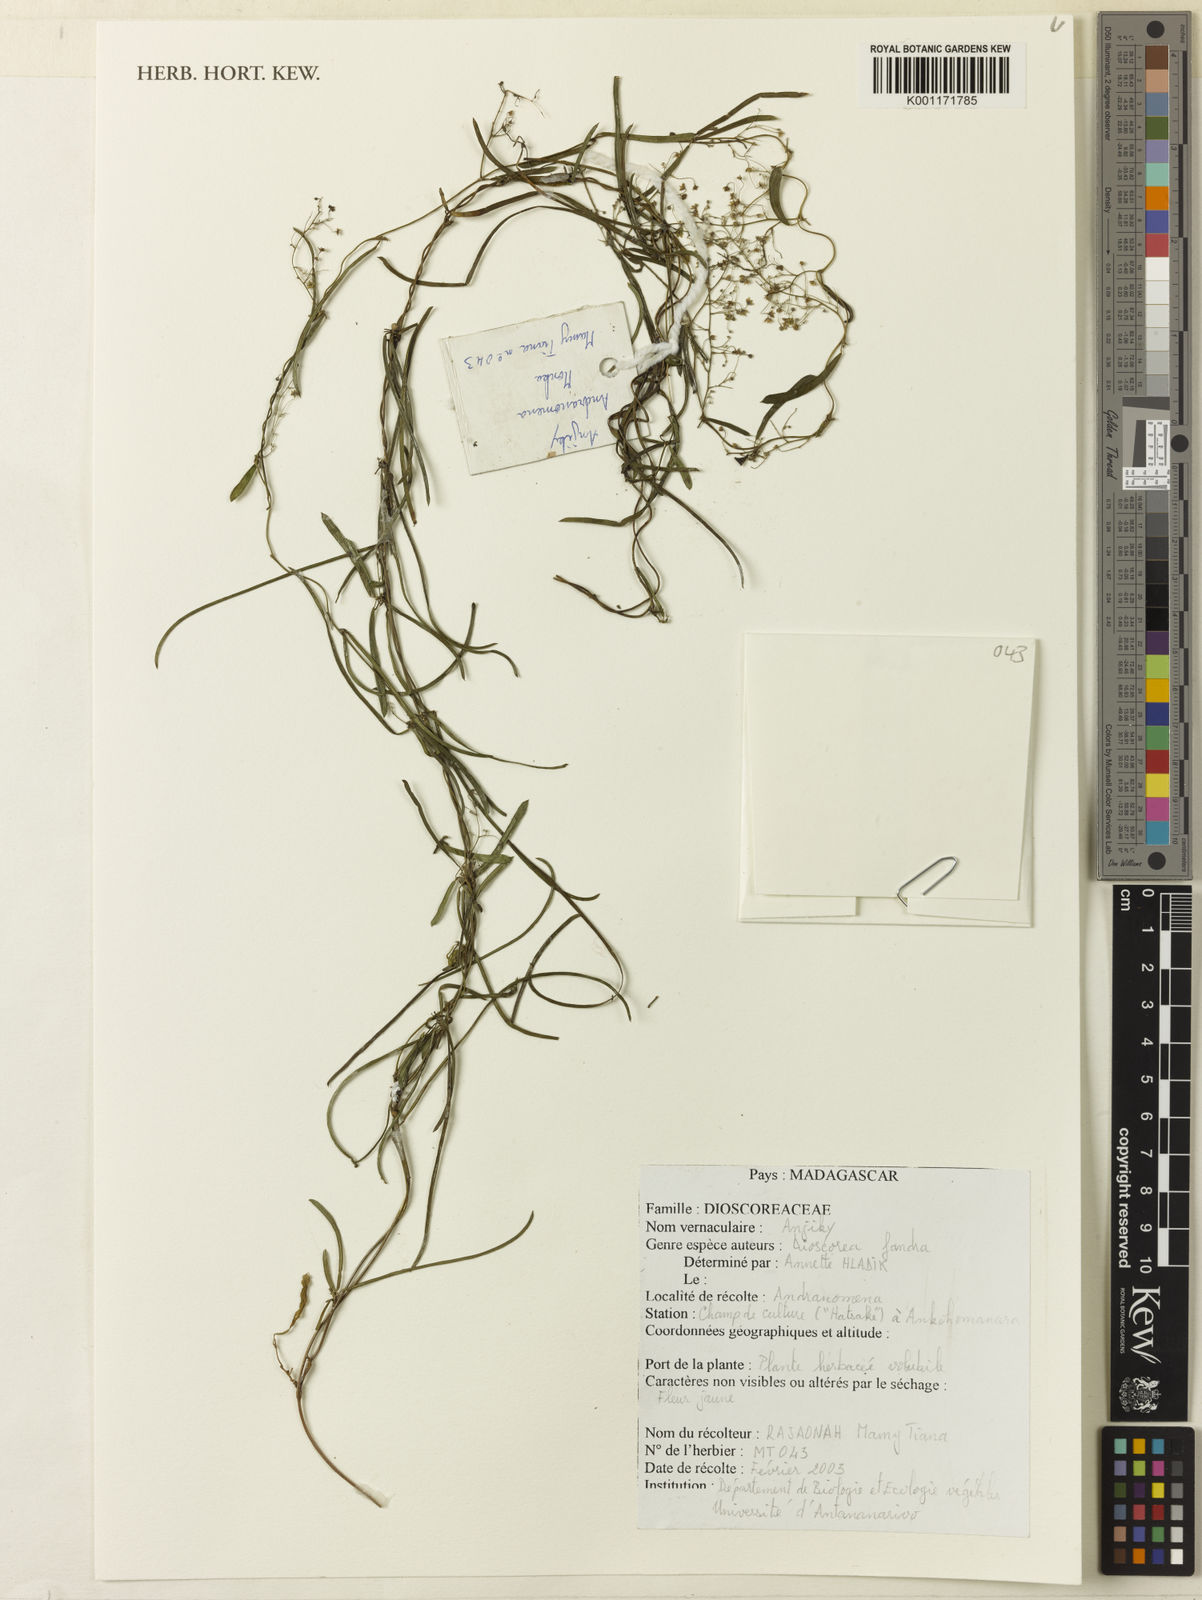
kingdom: Plantae
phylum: Tracheophyta
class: Liliopsida
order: Dioscoreales
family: Dioscoreaceae
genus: Dioscorea
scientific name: Dioscorea fandra
